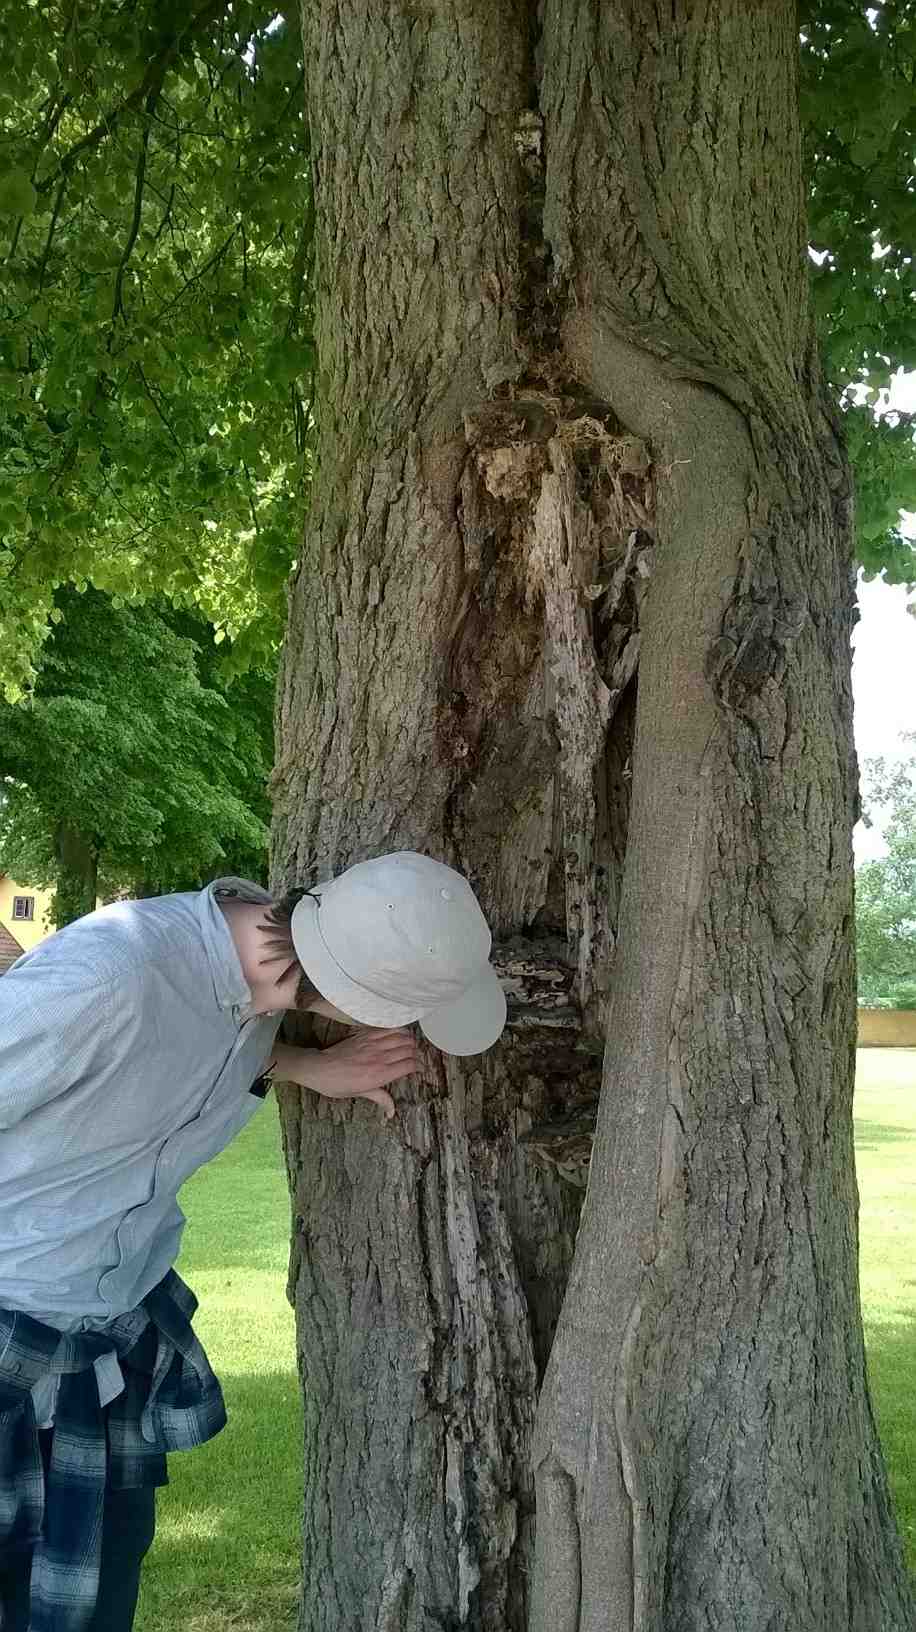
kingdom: Fungi
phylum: Basidiomycota
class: Agaricomycetes
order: Polyporales
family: Polyporaceae
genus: Ganoderma
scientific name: Ganoderma adspersum
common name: grov lakporesvamp
